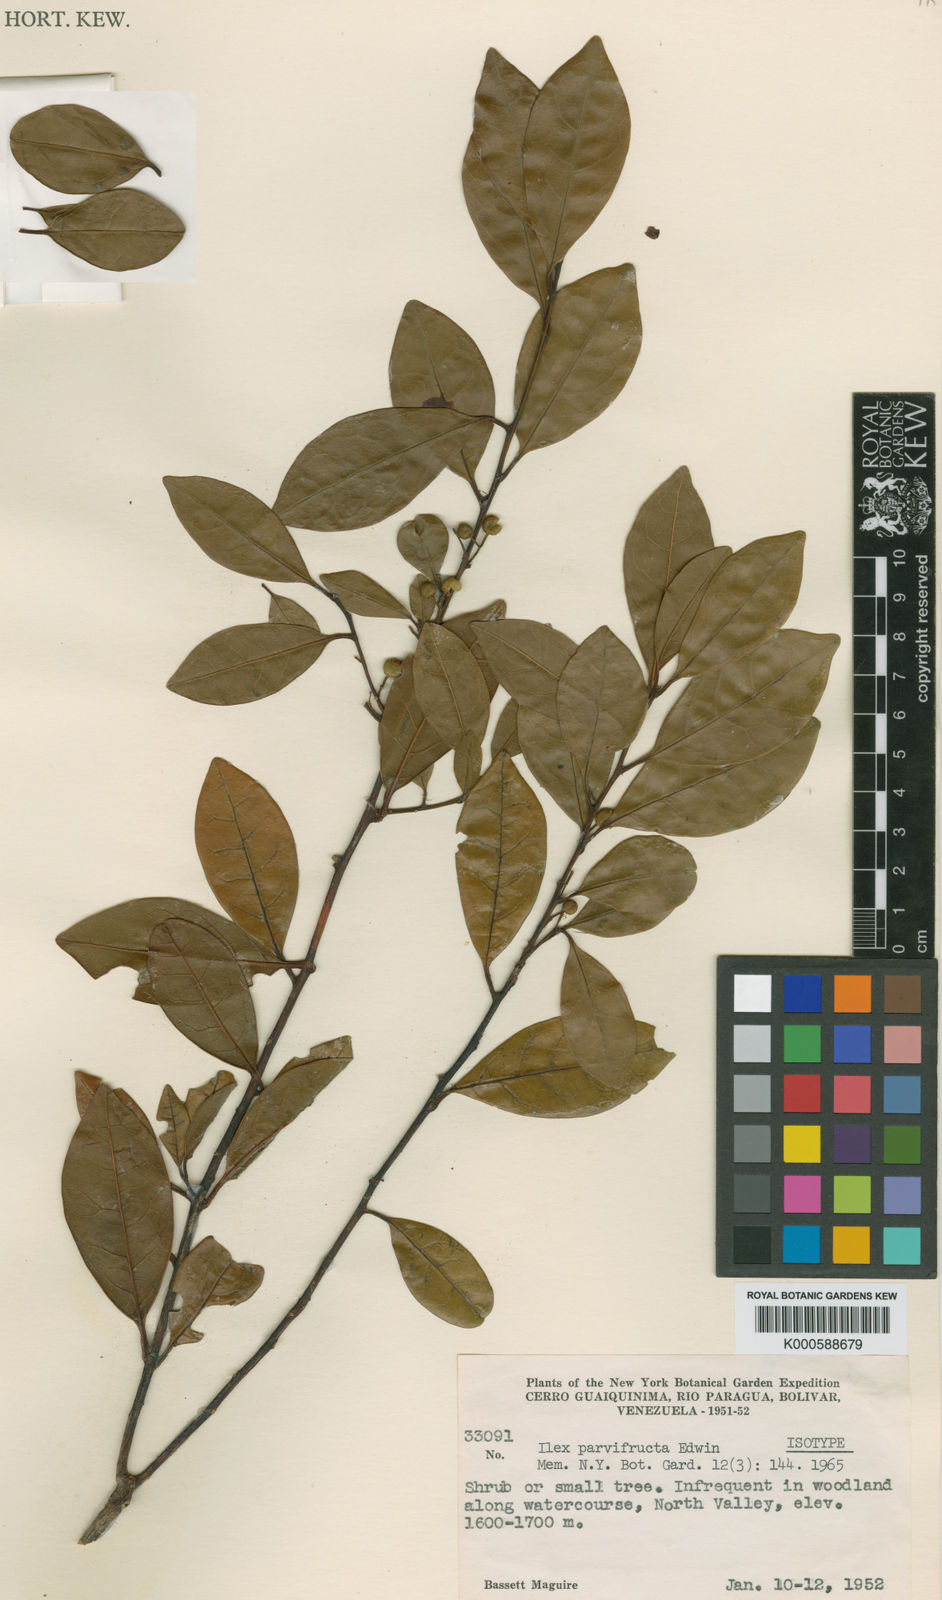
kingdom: Plantae
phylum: Tracheophyta
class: Magnoliopsida
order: Aquifoliales
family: Aquifoliaceae
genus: Ilex
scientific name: Ilex parvifructa
